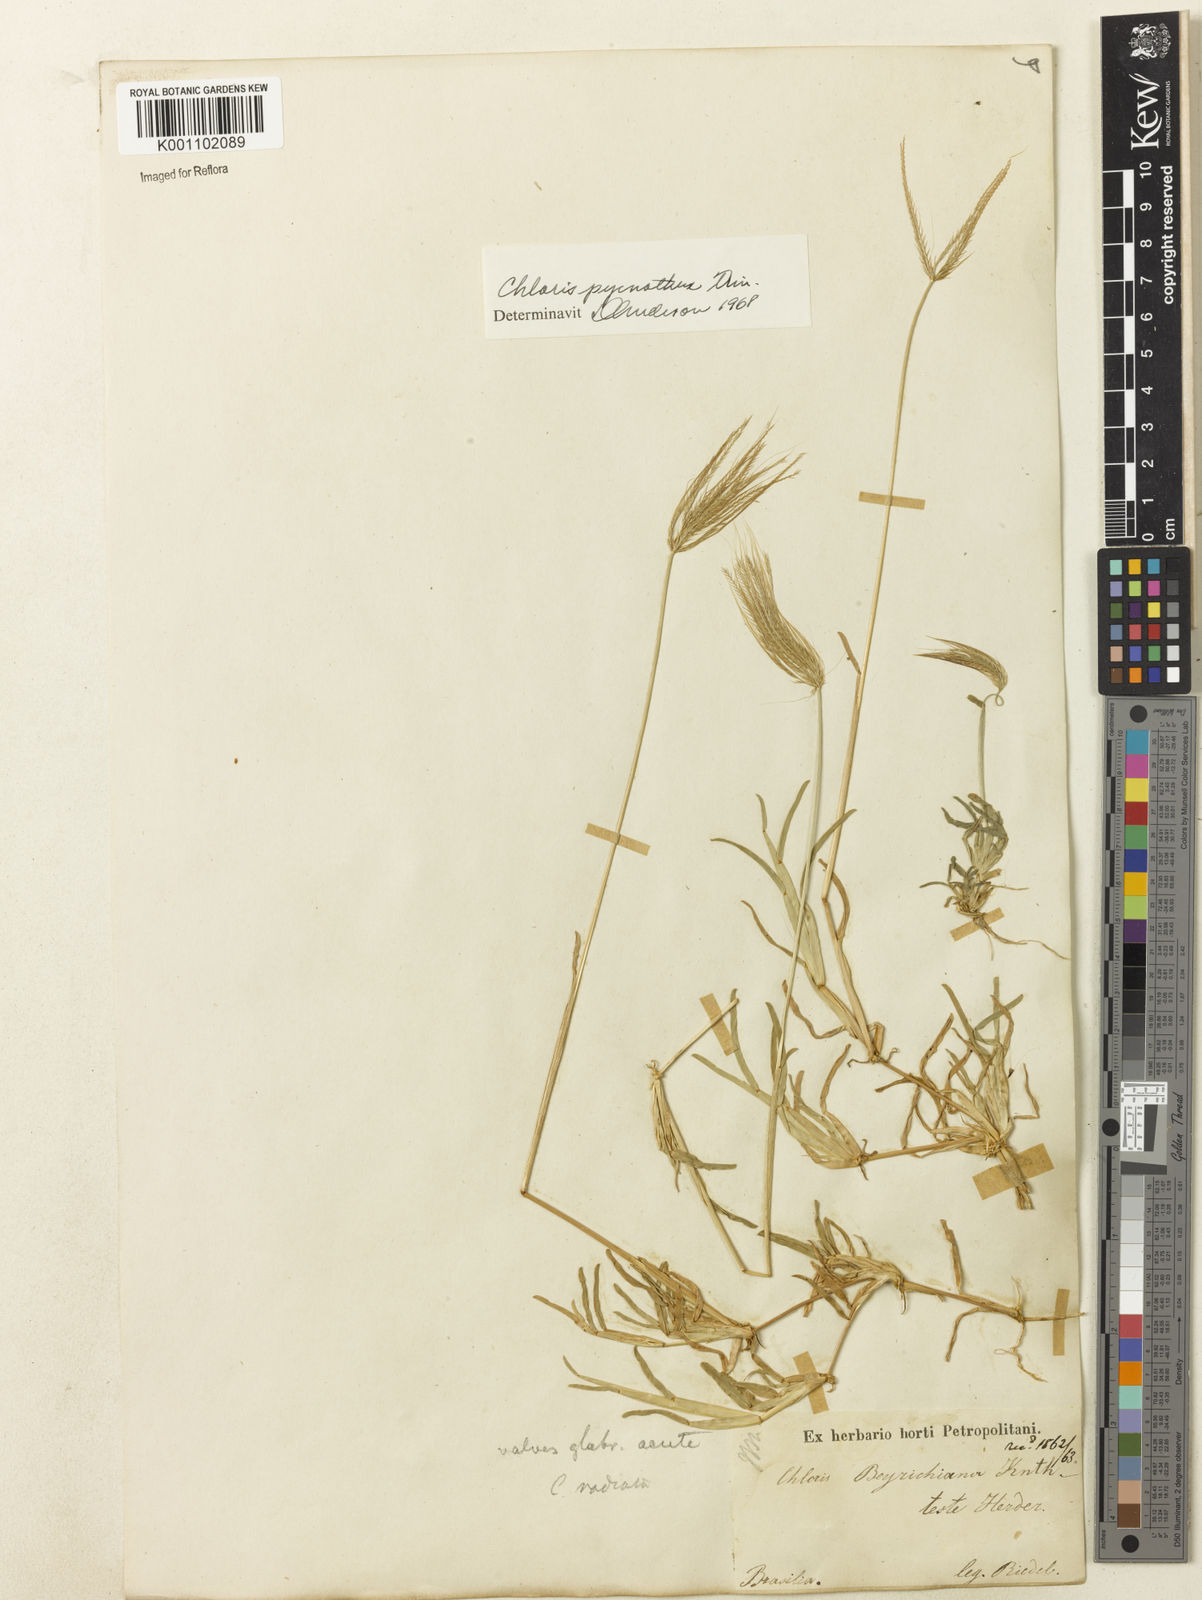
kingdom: Plantae
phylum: Tracheophyta
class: Liliopsida
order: Poales
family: Poaceae
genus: Chloris
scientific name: Chloris pycnothrix
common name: Spiderweb chloris
